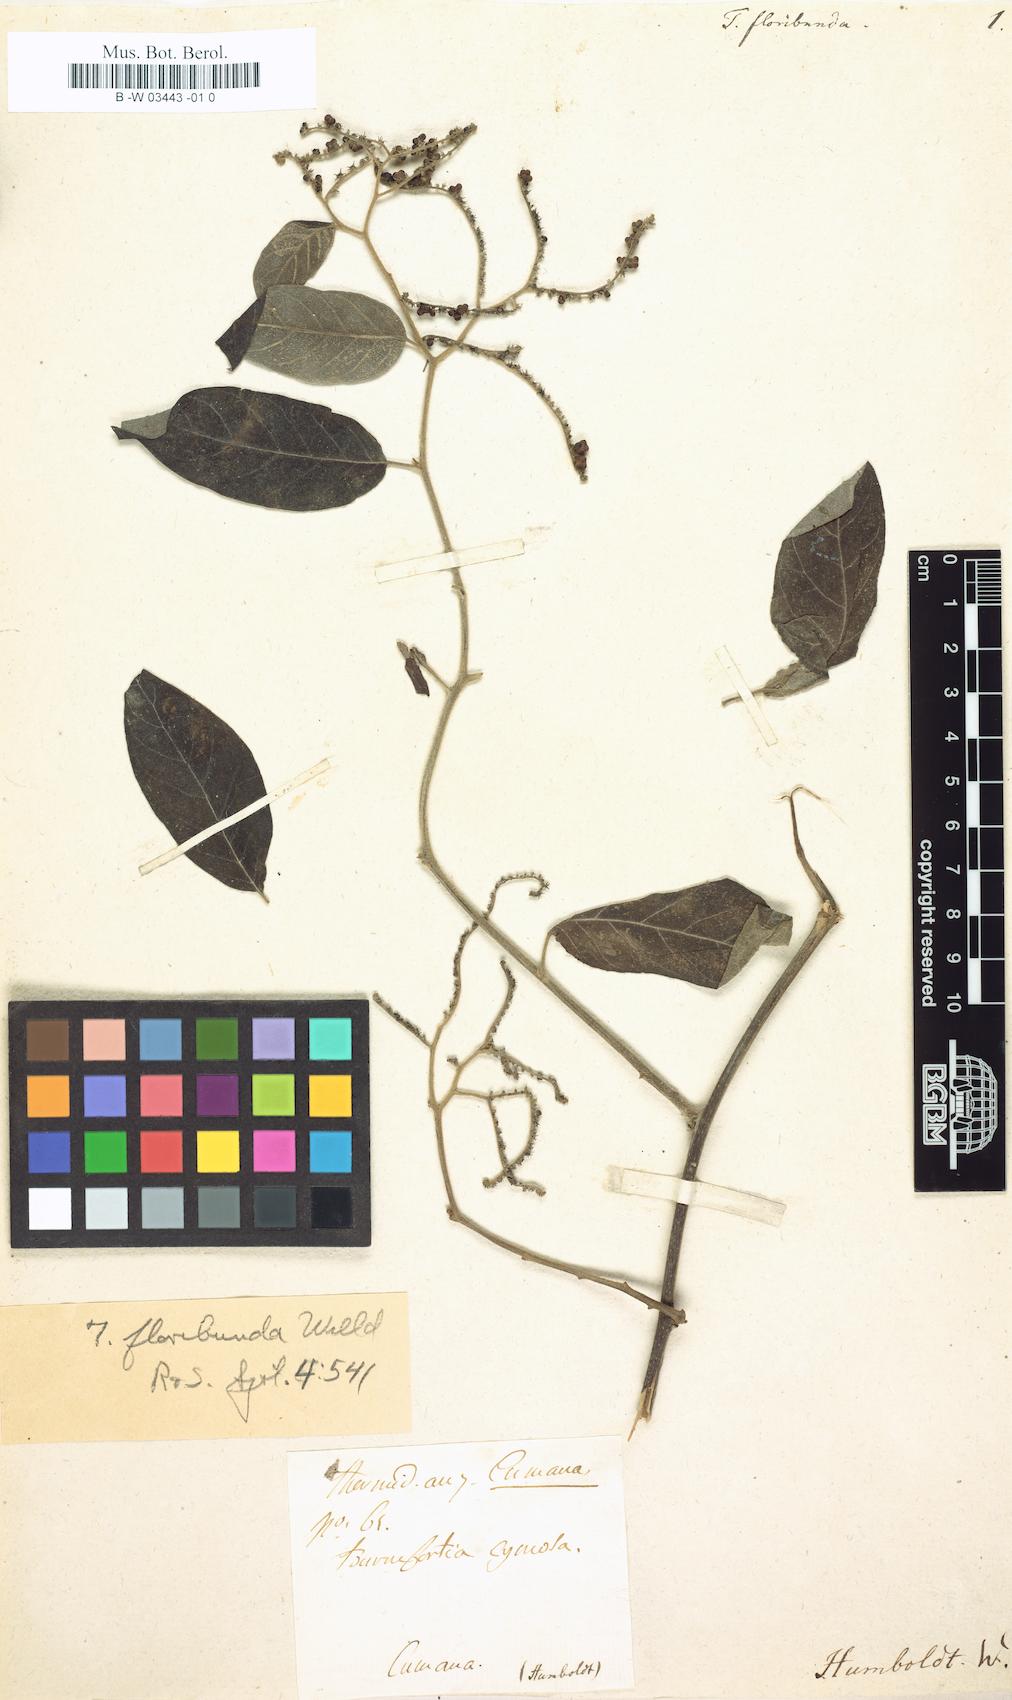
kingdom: Plantae
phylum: Tracheophyta
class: Magnoliopsida
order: Boraginales
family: Heliotropiaceae
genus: Myriopus
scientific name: Myriopus volubilis
